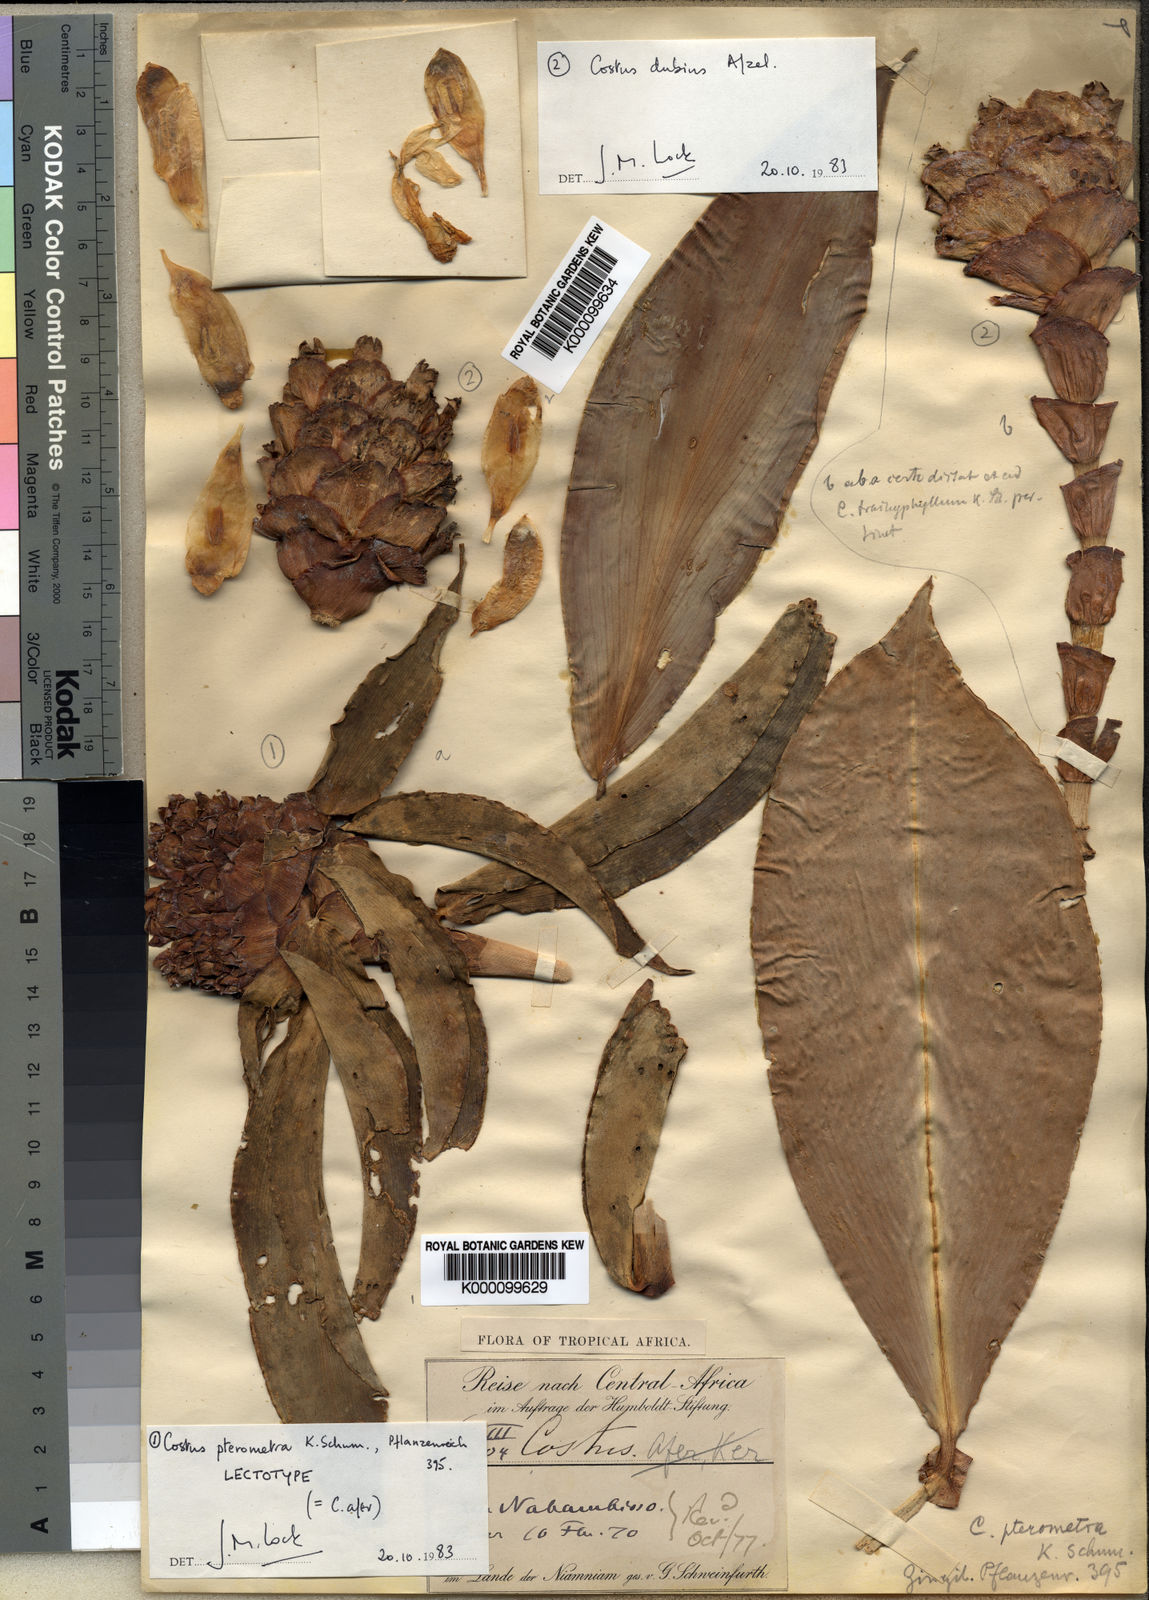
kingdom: Plantae
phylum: Tracheophyta
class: Liliopsida
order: Zingiberales
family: Costaceae
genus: Costus
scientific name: Costus dubius
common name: Costus
